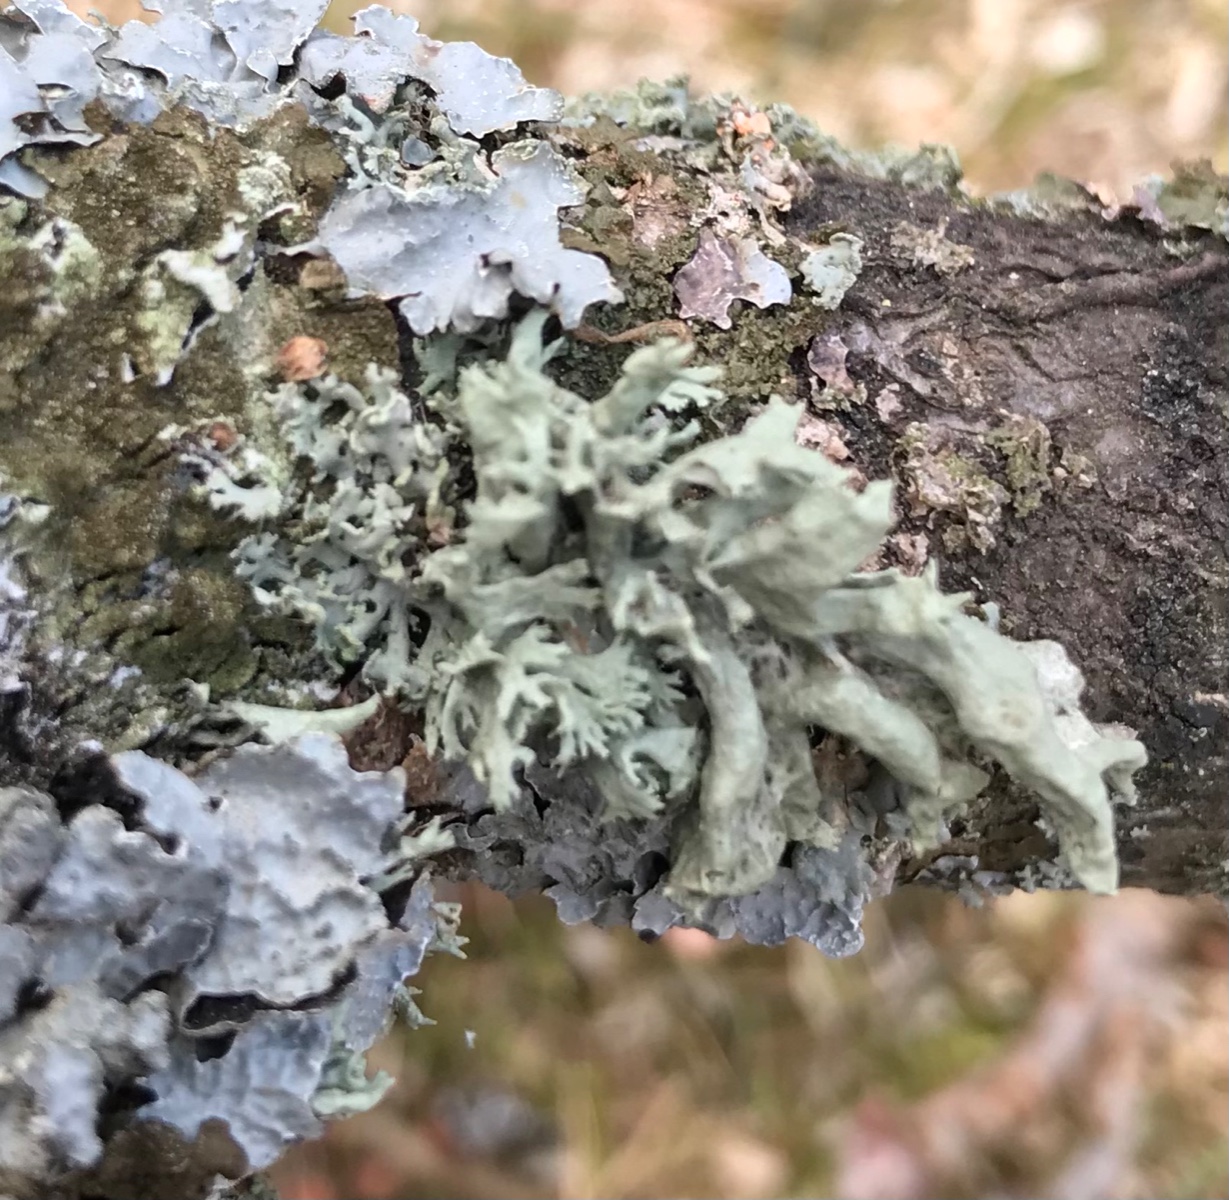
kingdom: Fungi
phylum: Ascomycota
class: Lecanoromycetes
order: Lecanorales
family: Parmeliaceae
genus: Lichen
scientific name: Lichen
